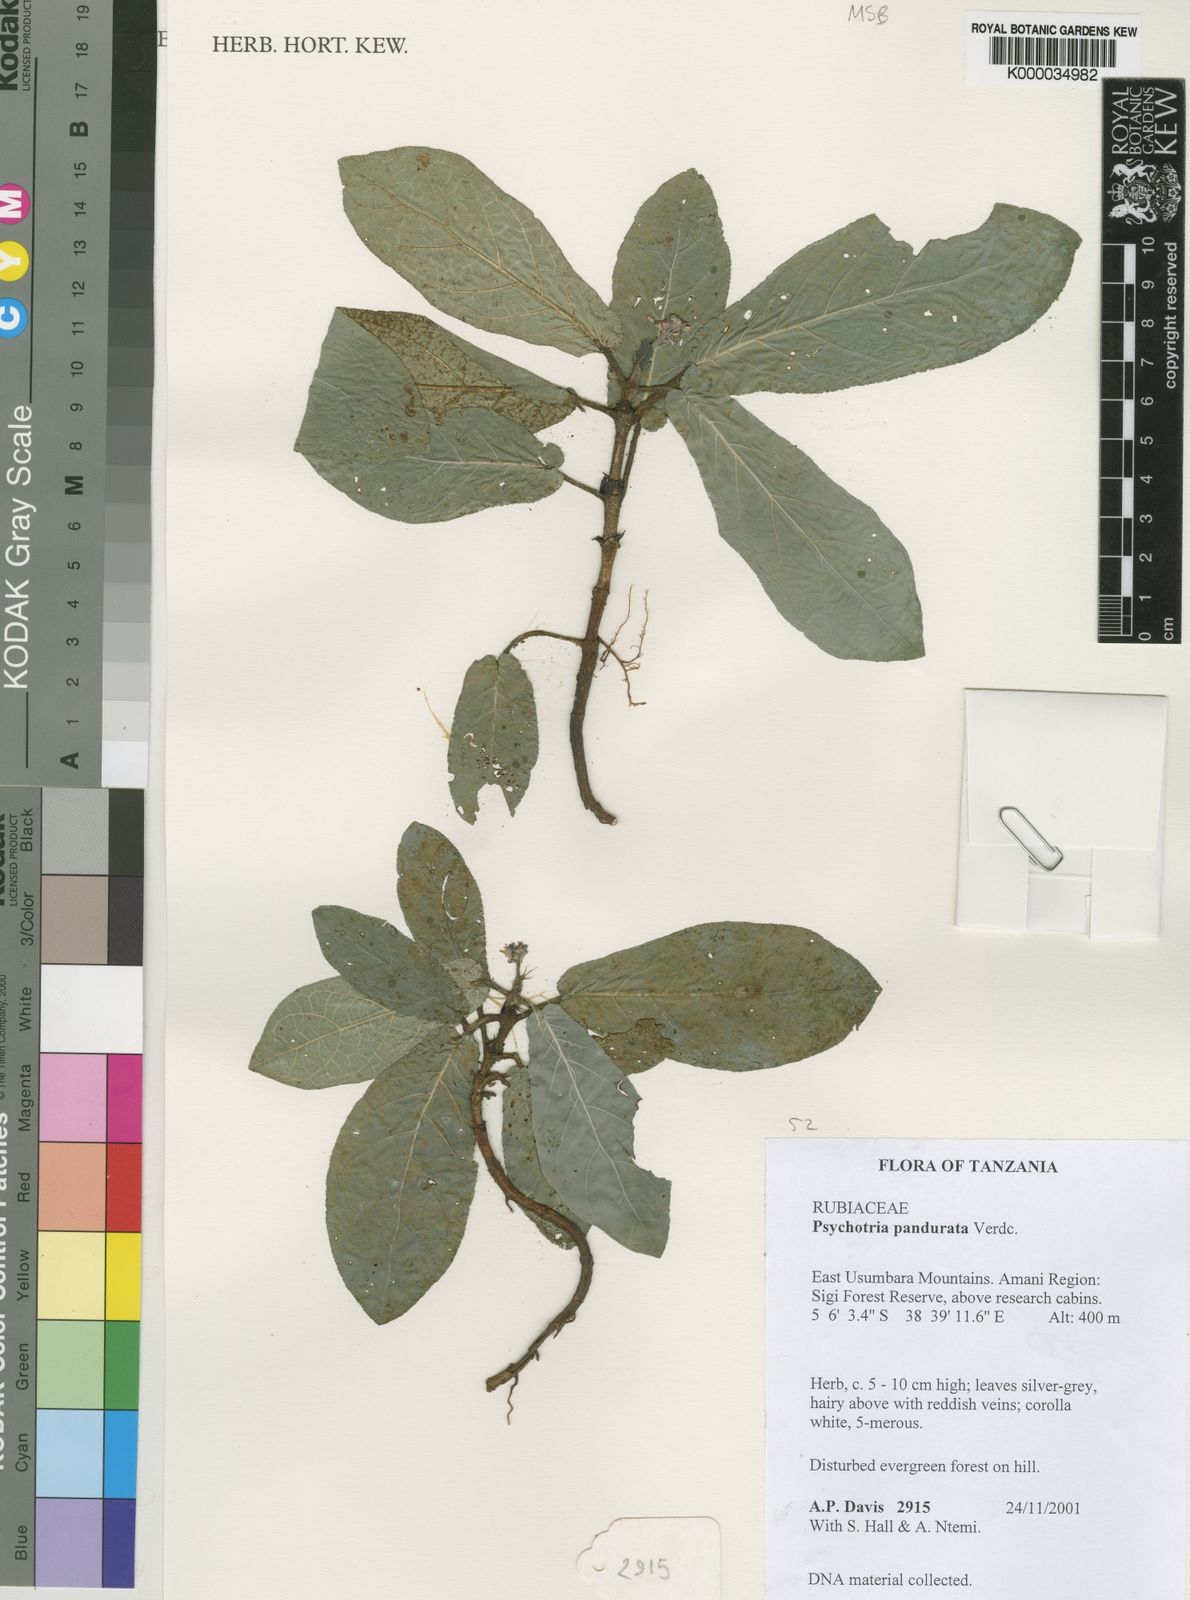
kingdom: Plantae
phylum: Tracheophyta
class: Magnoliopsida
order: Gentianales
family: Rubiaceae
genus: Psychotria
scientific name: Psychotria pandurata
